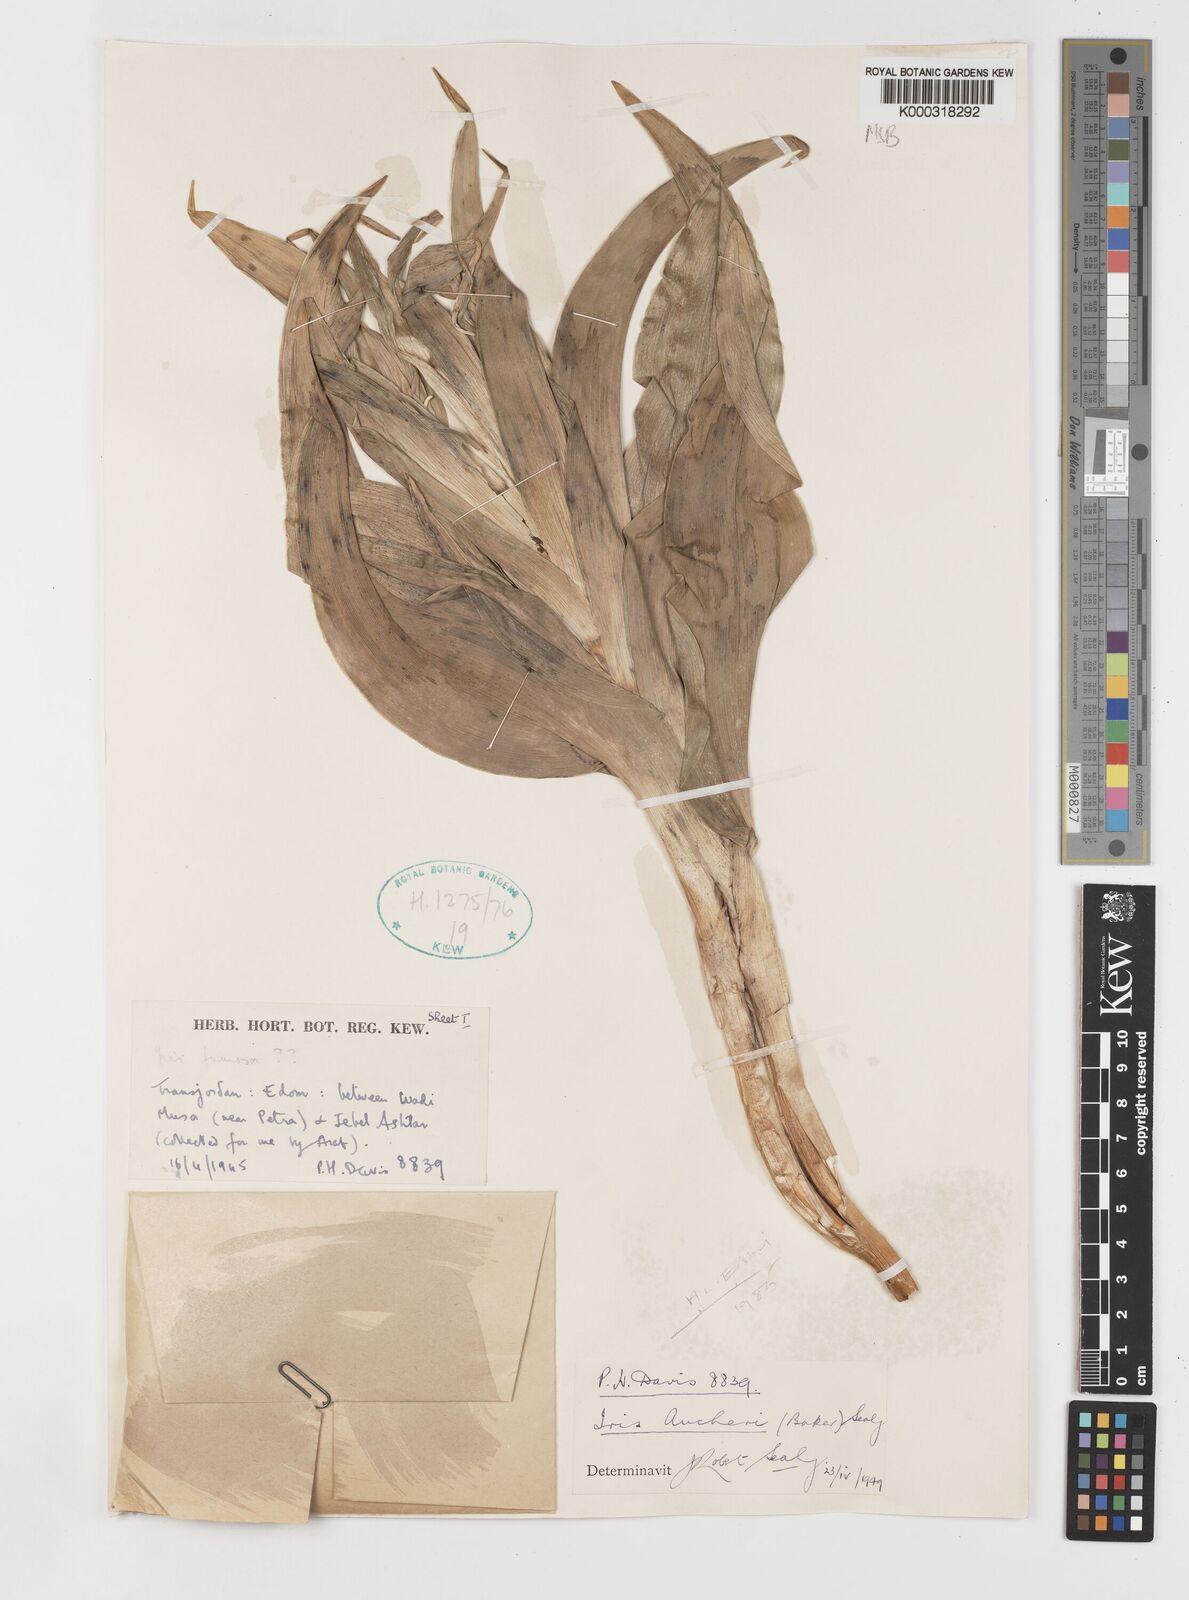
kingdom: Plantae
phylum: Tracheophyta
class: Liliopsida
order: Asparagales
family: Iridaceae
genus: Iris
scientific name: Iris aucheri
